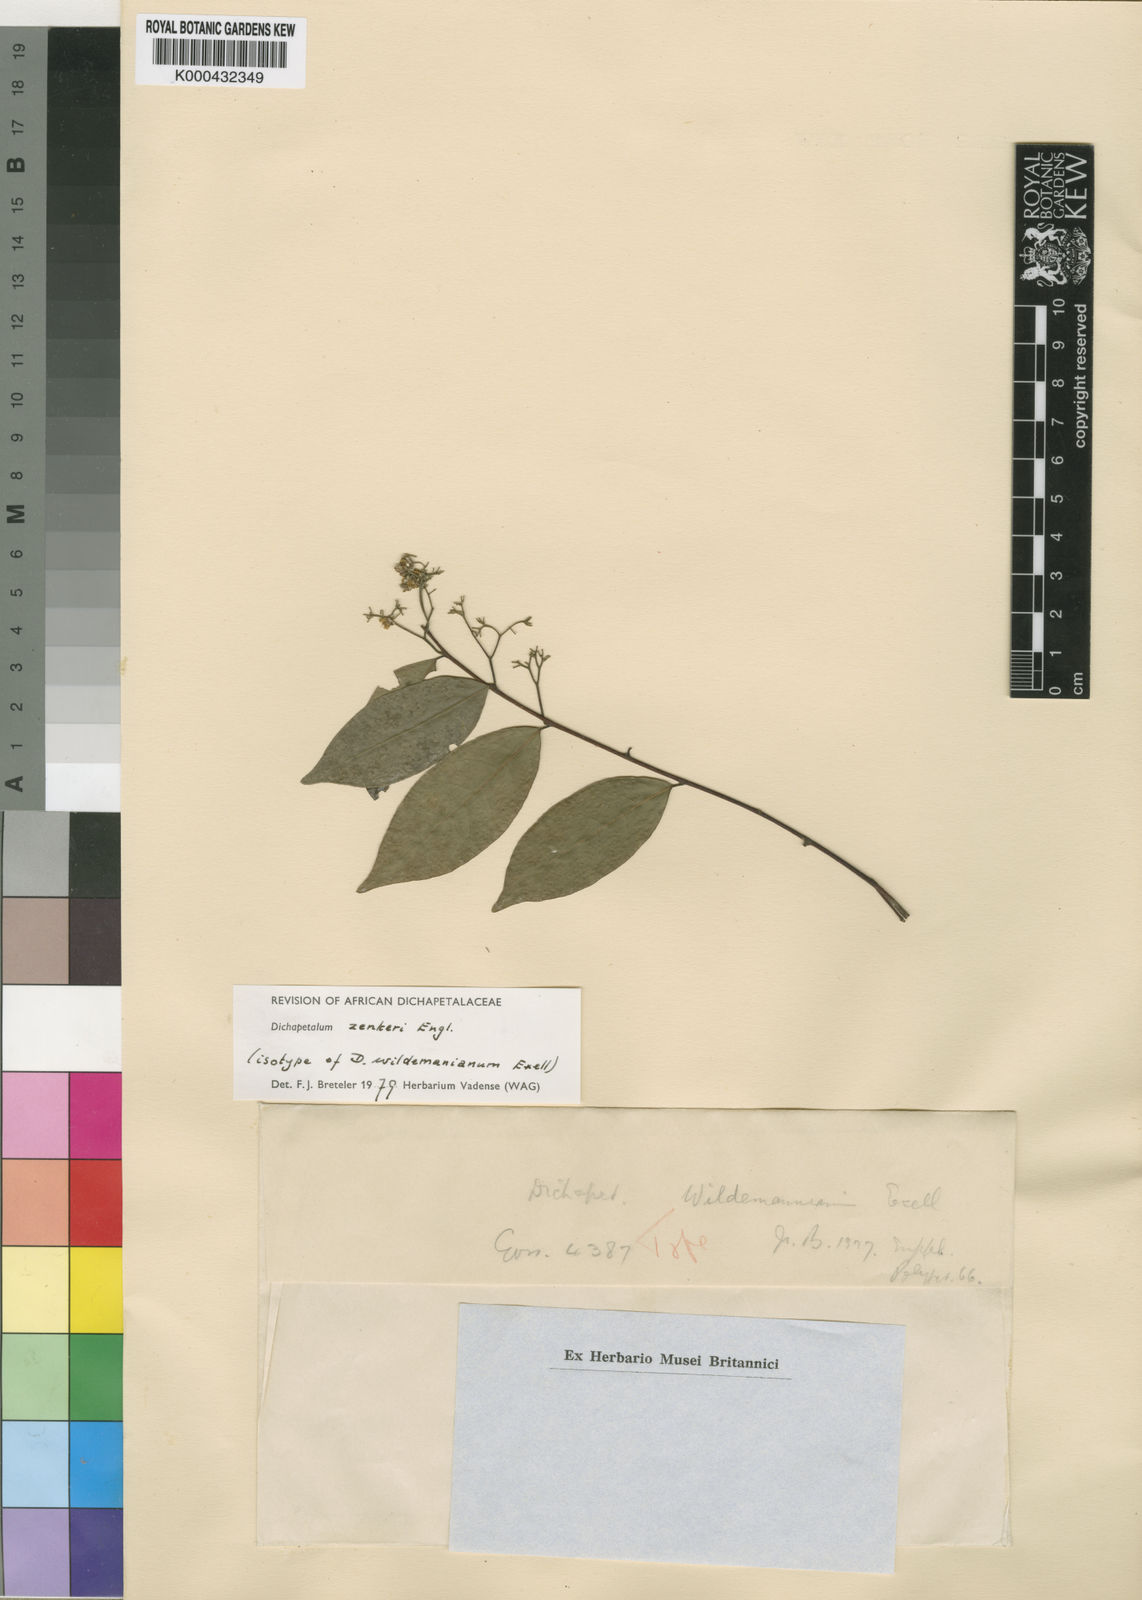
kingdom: Plantae
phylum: Tracheophyta
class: Magnoliopsida
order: Malpighiales
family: Dichapetalaceae
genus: Dichapetalum
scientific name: Dichapetalum zenkeri
